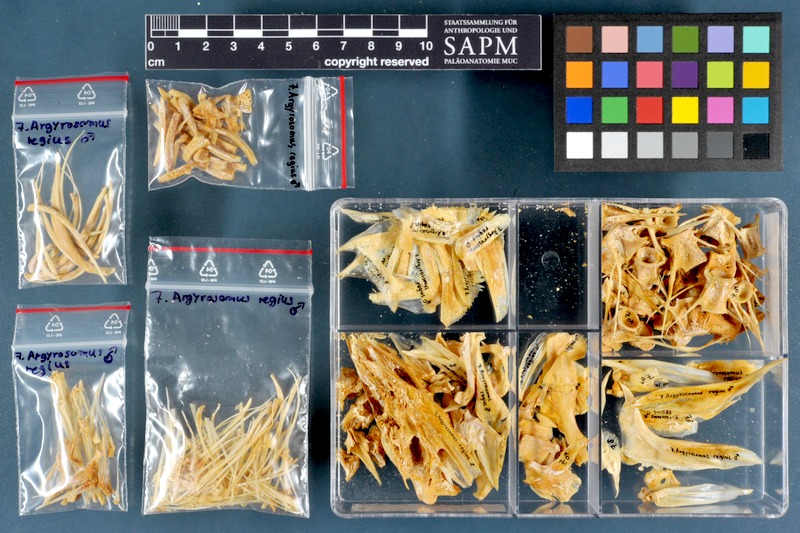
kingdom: Animalia
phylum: Chordata
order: Perciformes
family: Sciaenidae
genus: Argyrosomus
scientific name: Argyrosomus regius
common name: Meagre
